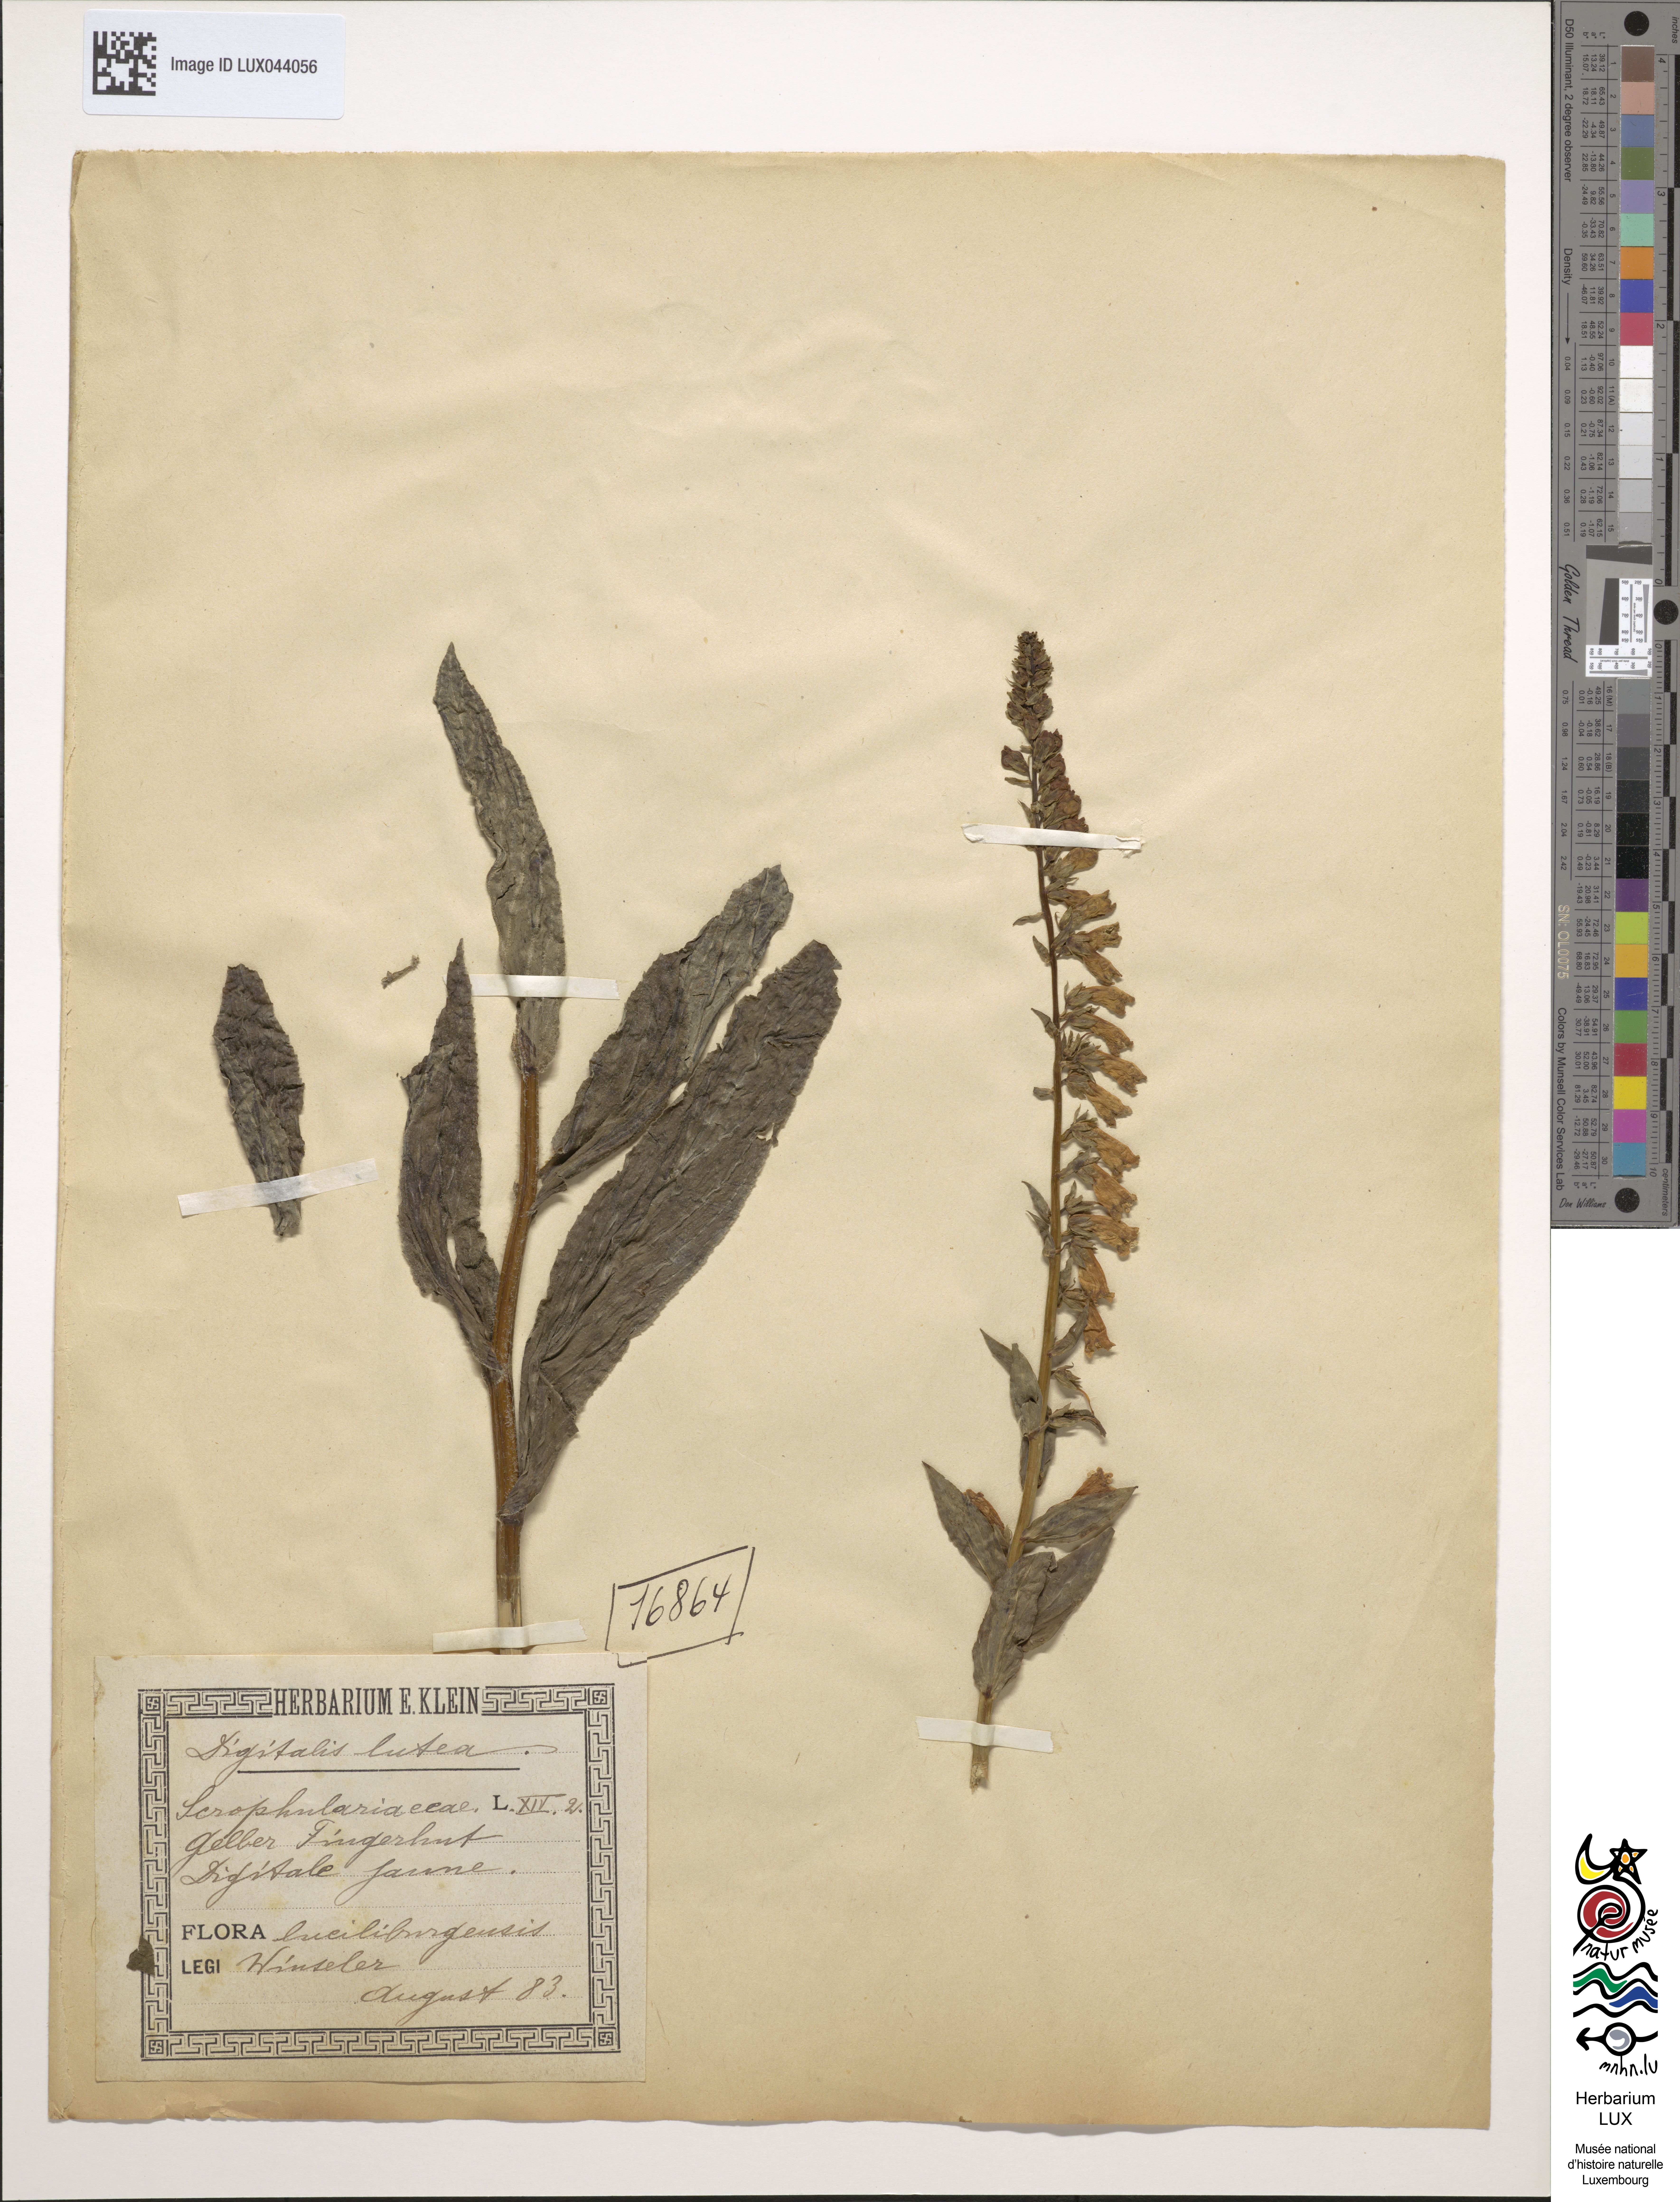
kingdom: Plantae
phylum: Tracheophyta
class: Magnoliopsida
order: Lamiales
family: Plantaginaceae
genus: Digitalis
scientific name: Digitalis lutea
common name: Straw foxglove
